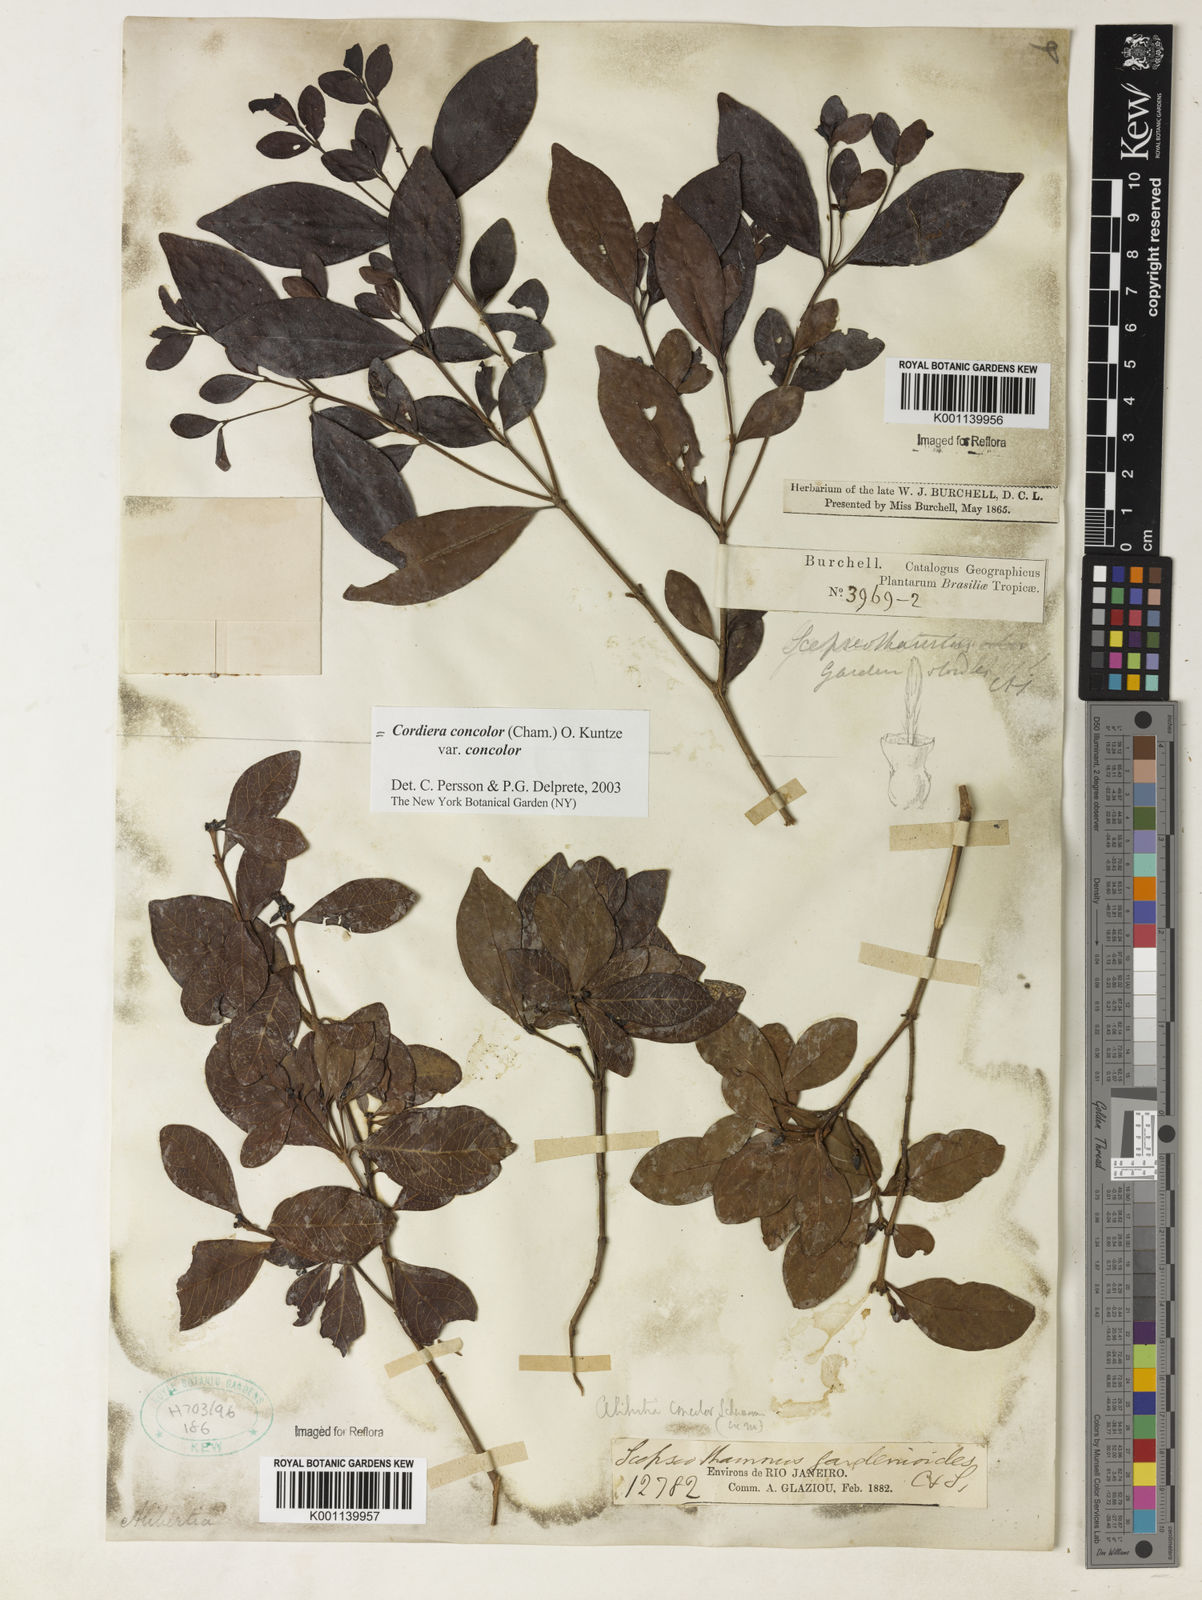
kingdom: Plantae
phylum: Tracheophyta
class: Magnoliopsida
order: Gentianales
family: Rubiaceae
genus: Cordiera
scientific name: Cordiera concolor
